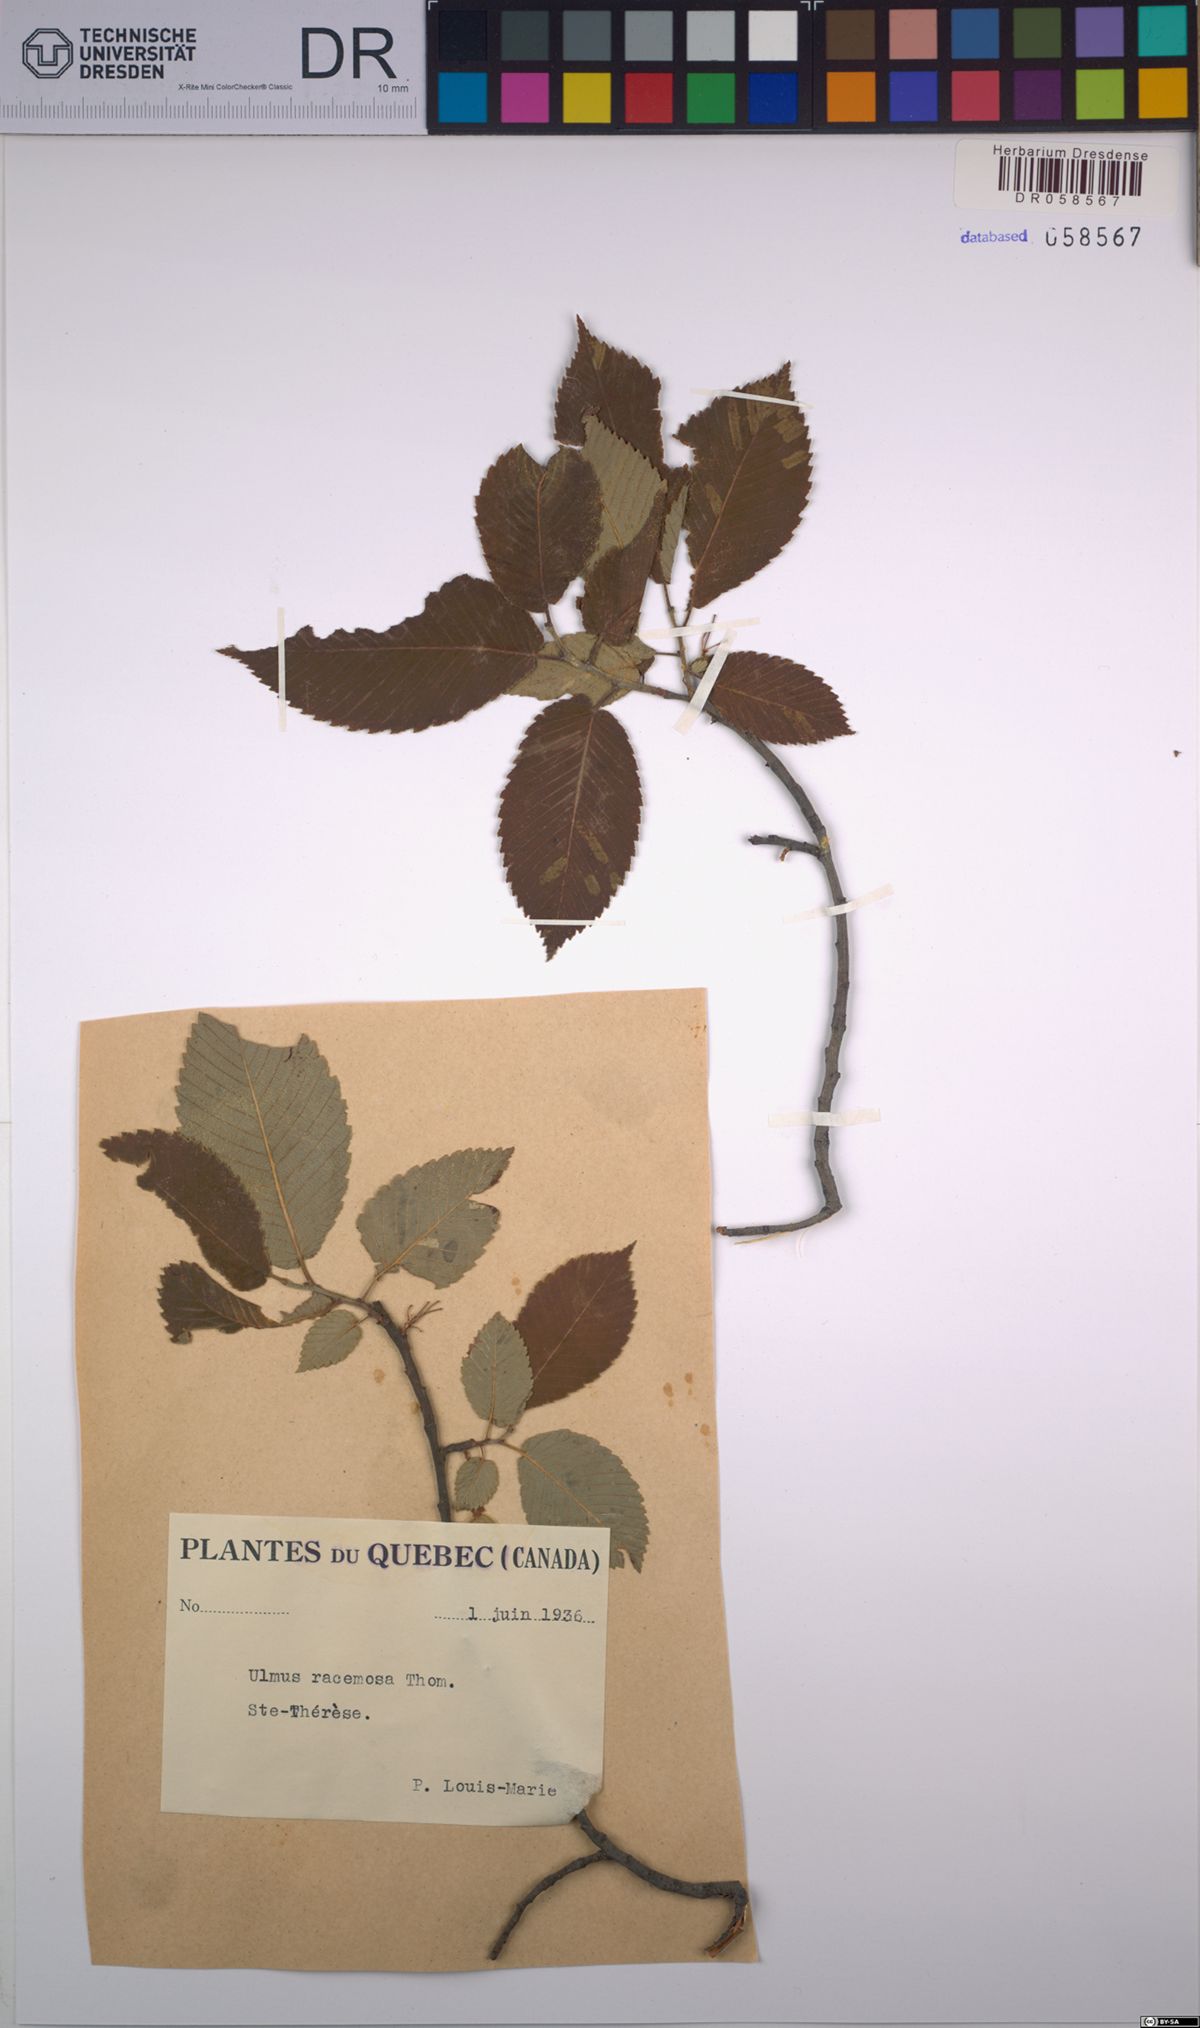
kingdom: Plantae
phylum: Tracheophyta
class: Magnoliopsida
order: Rosales
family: Ulmaceae
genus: Ulmus
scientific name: Ulmus thomasii
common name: Rock elm
